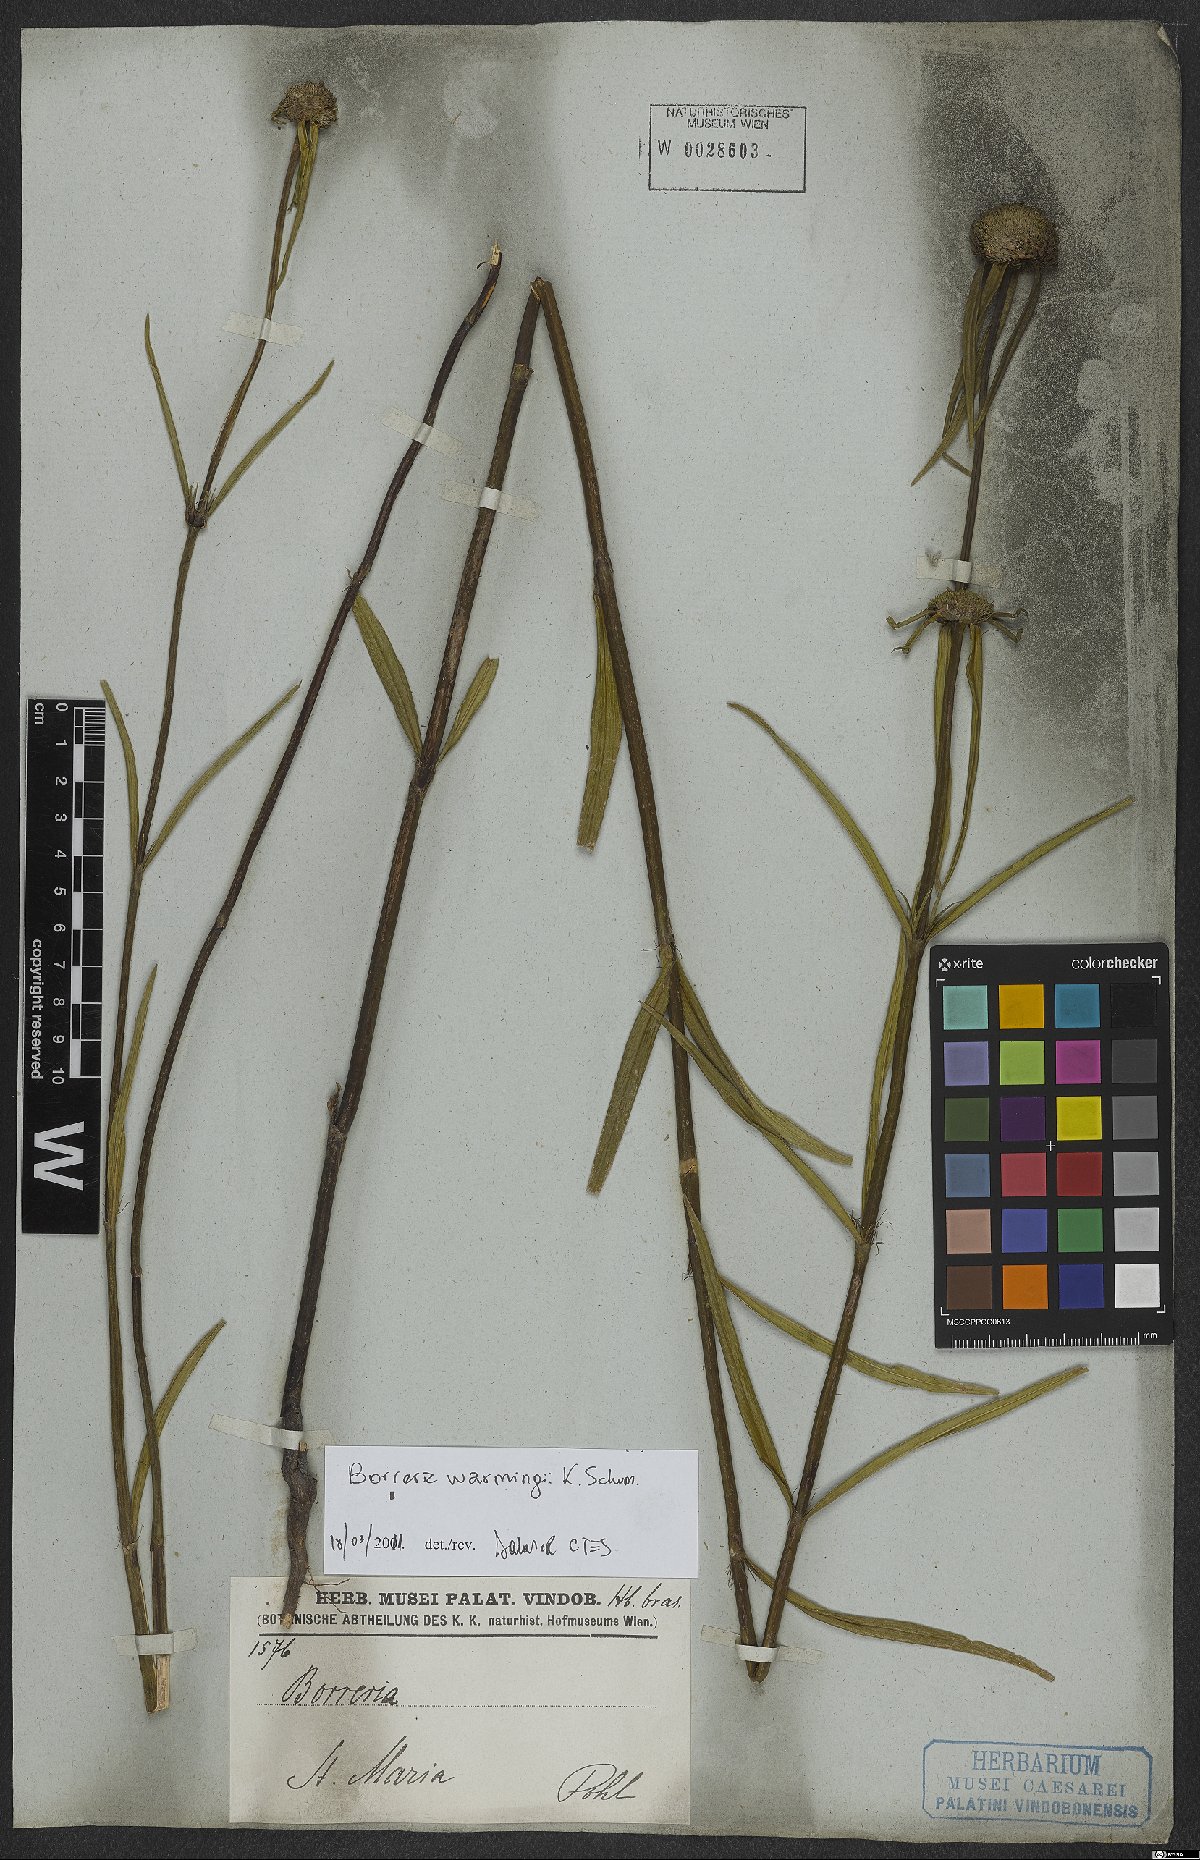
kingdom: Plantae
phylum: Tracheophyta
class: Magnoliopsida
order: Gentianales
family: Rubiaceae
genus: Spermacoce
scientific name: Spermacoce warmingii
